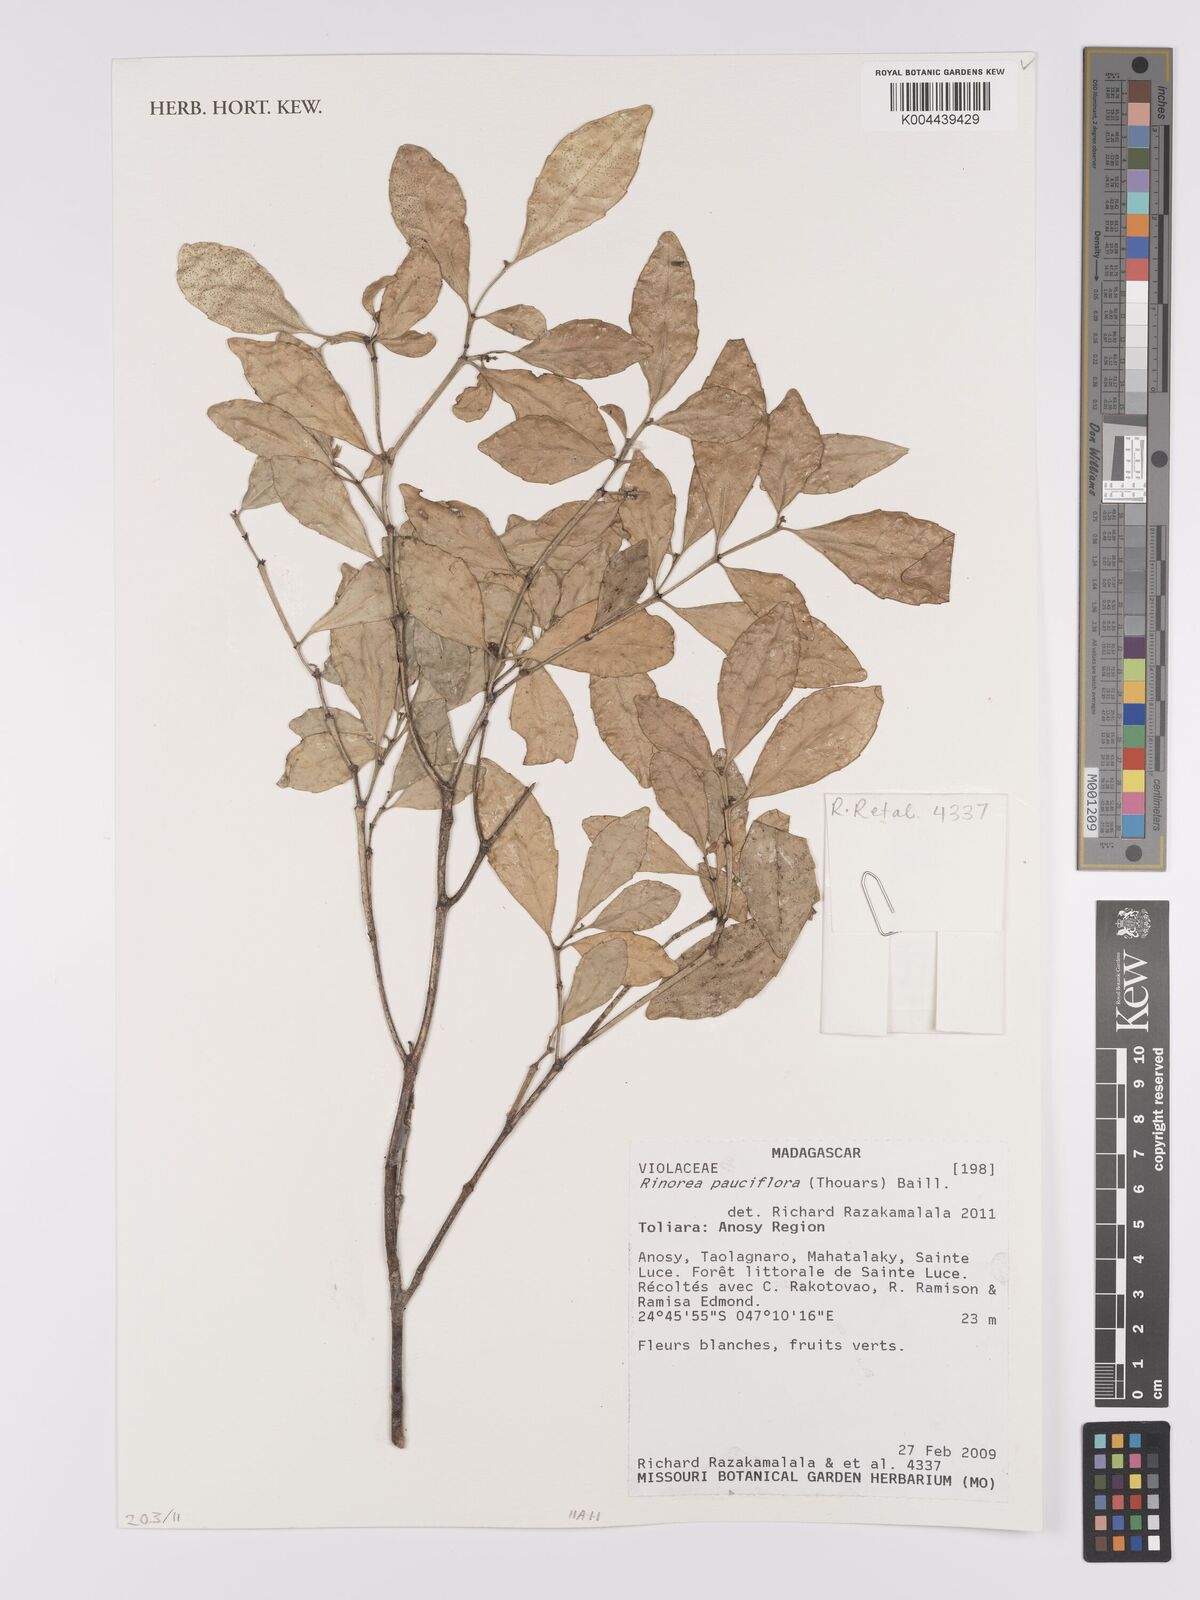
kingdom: Plantae
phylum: Tracheophyta
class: Magnoliopsida
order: Malpighiales
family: Violaceae
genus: Rinorea
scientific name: Rinorea pauciflora
